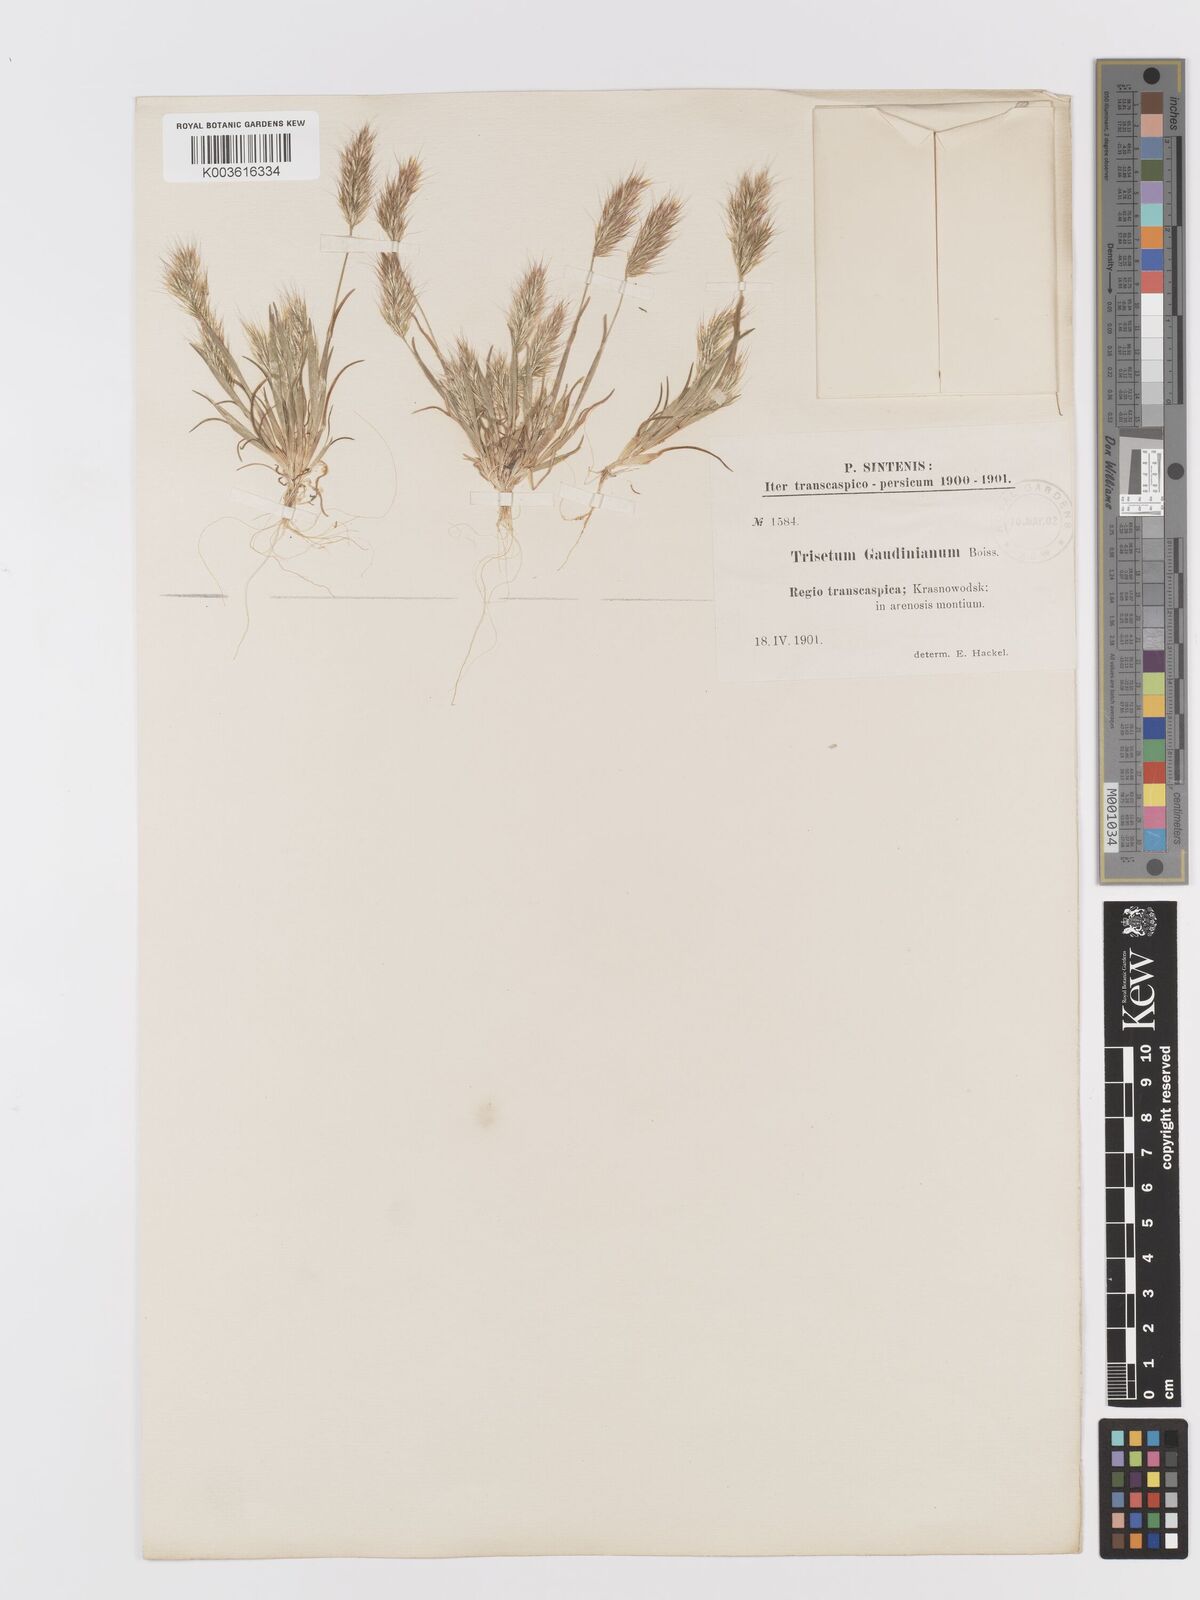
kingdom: Plantae
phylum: Tracheophyta
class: Liliopsida
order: Poales
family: Poaceae
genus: Trisetaria
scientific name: Trisetaria loeflingiana
